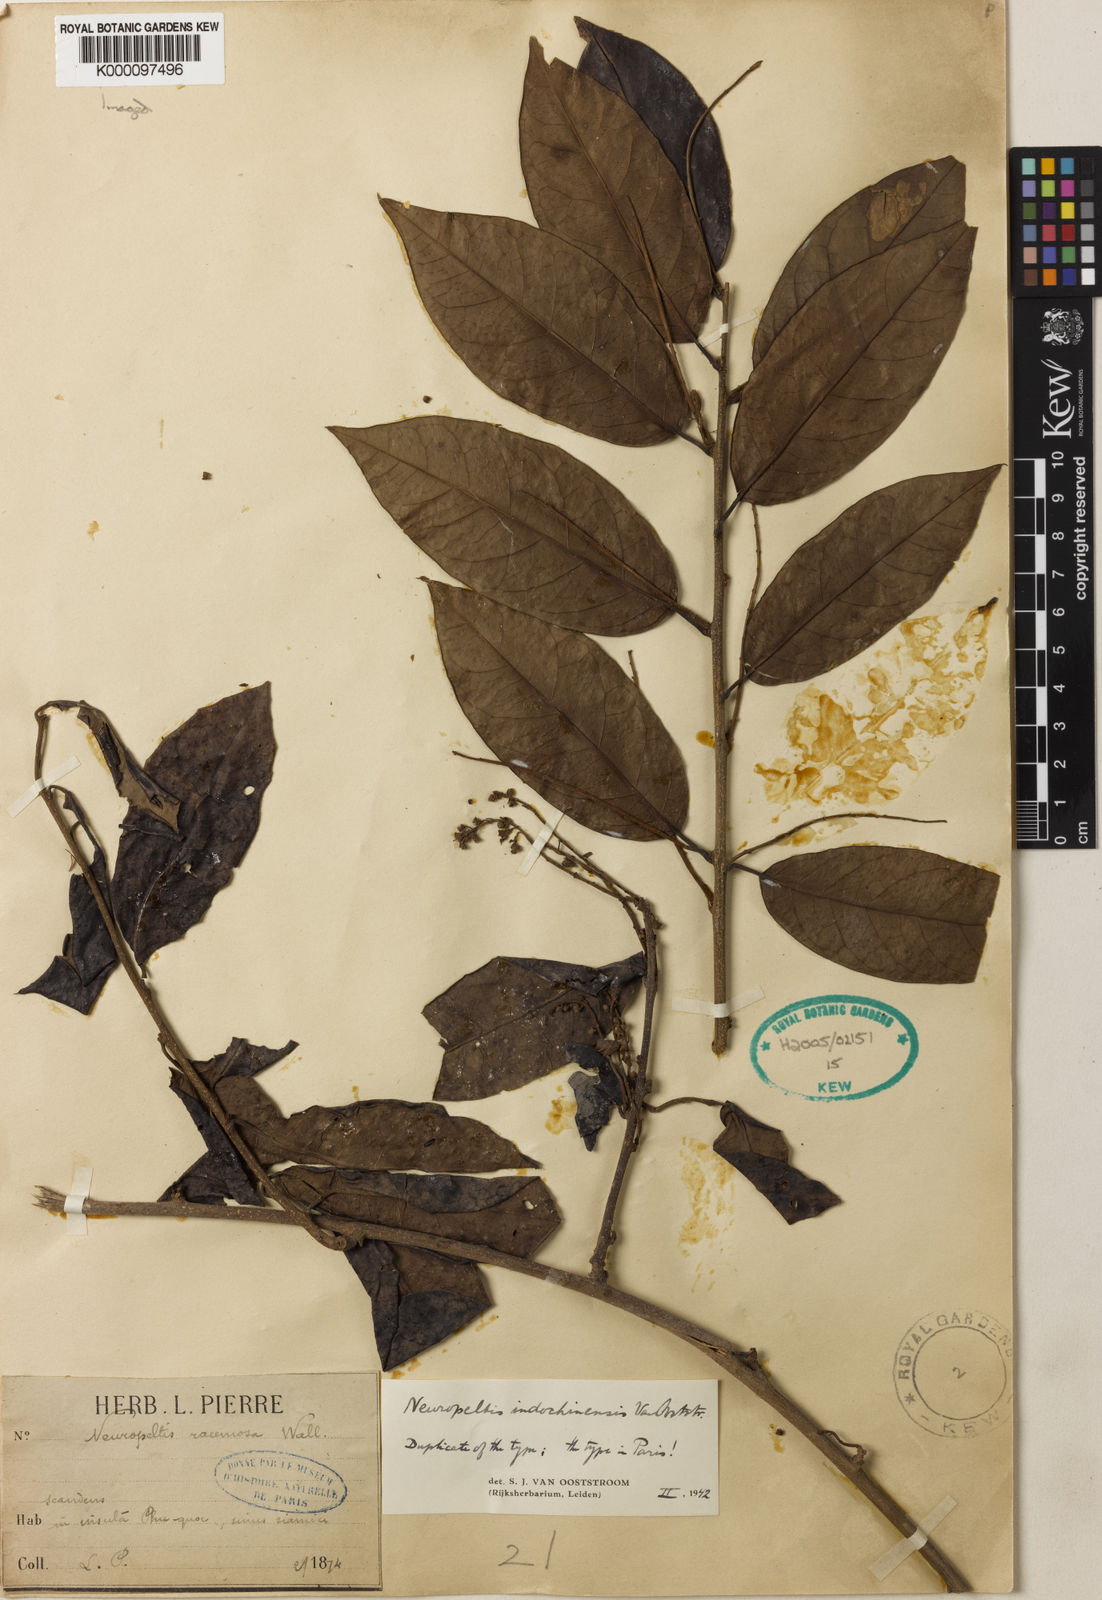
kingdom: Plantae
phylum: Tracheophyta
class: Magnoliopsida
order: Solanales
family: Convolvulaceae
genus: Neuropeltis
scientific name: Neuropeltis indochinensis
